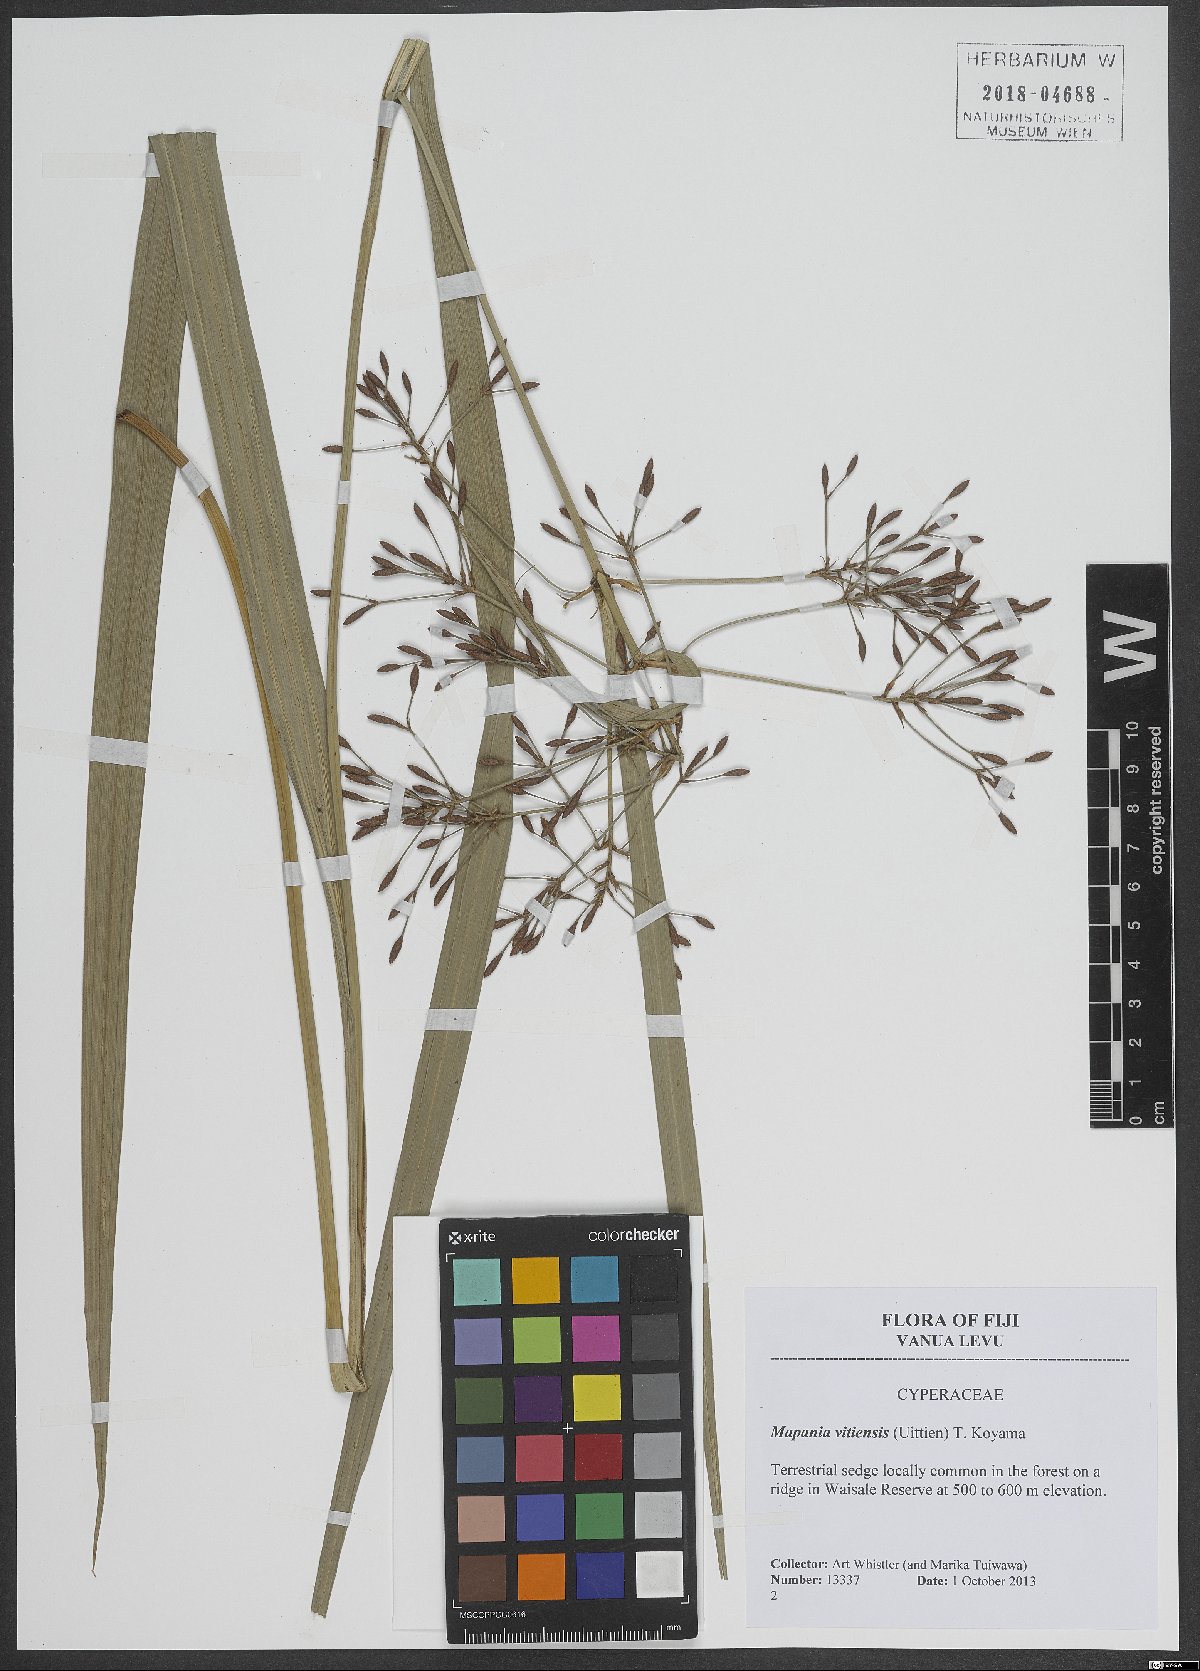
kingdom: Plantae
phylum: Tracheophyta
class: Liliopsida
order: Poales
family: Cyperaceae
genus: Mapania
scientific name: Mapania vitiensis
